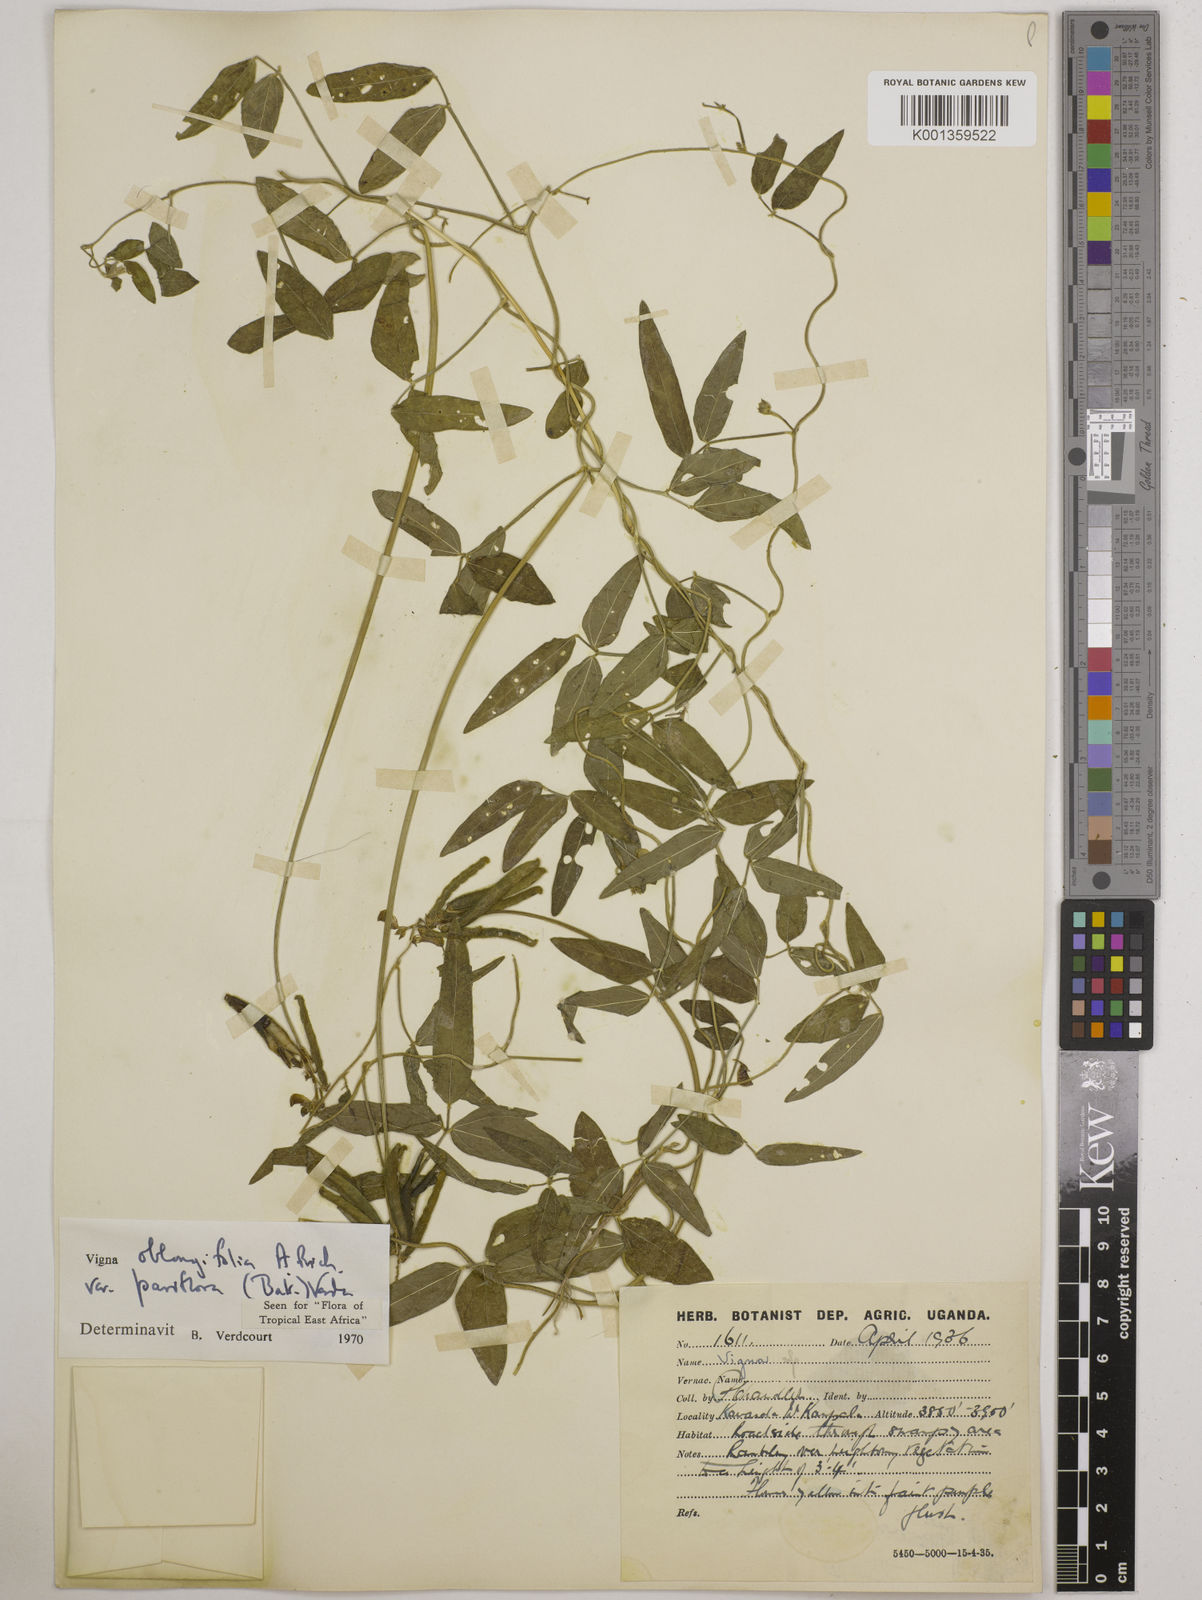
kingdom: Plantae
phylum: Tracheophyta
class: Magnoliopsida
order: Fabales
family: Fabaceae
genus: Vigna
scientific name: Vigna
